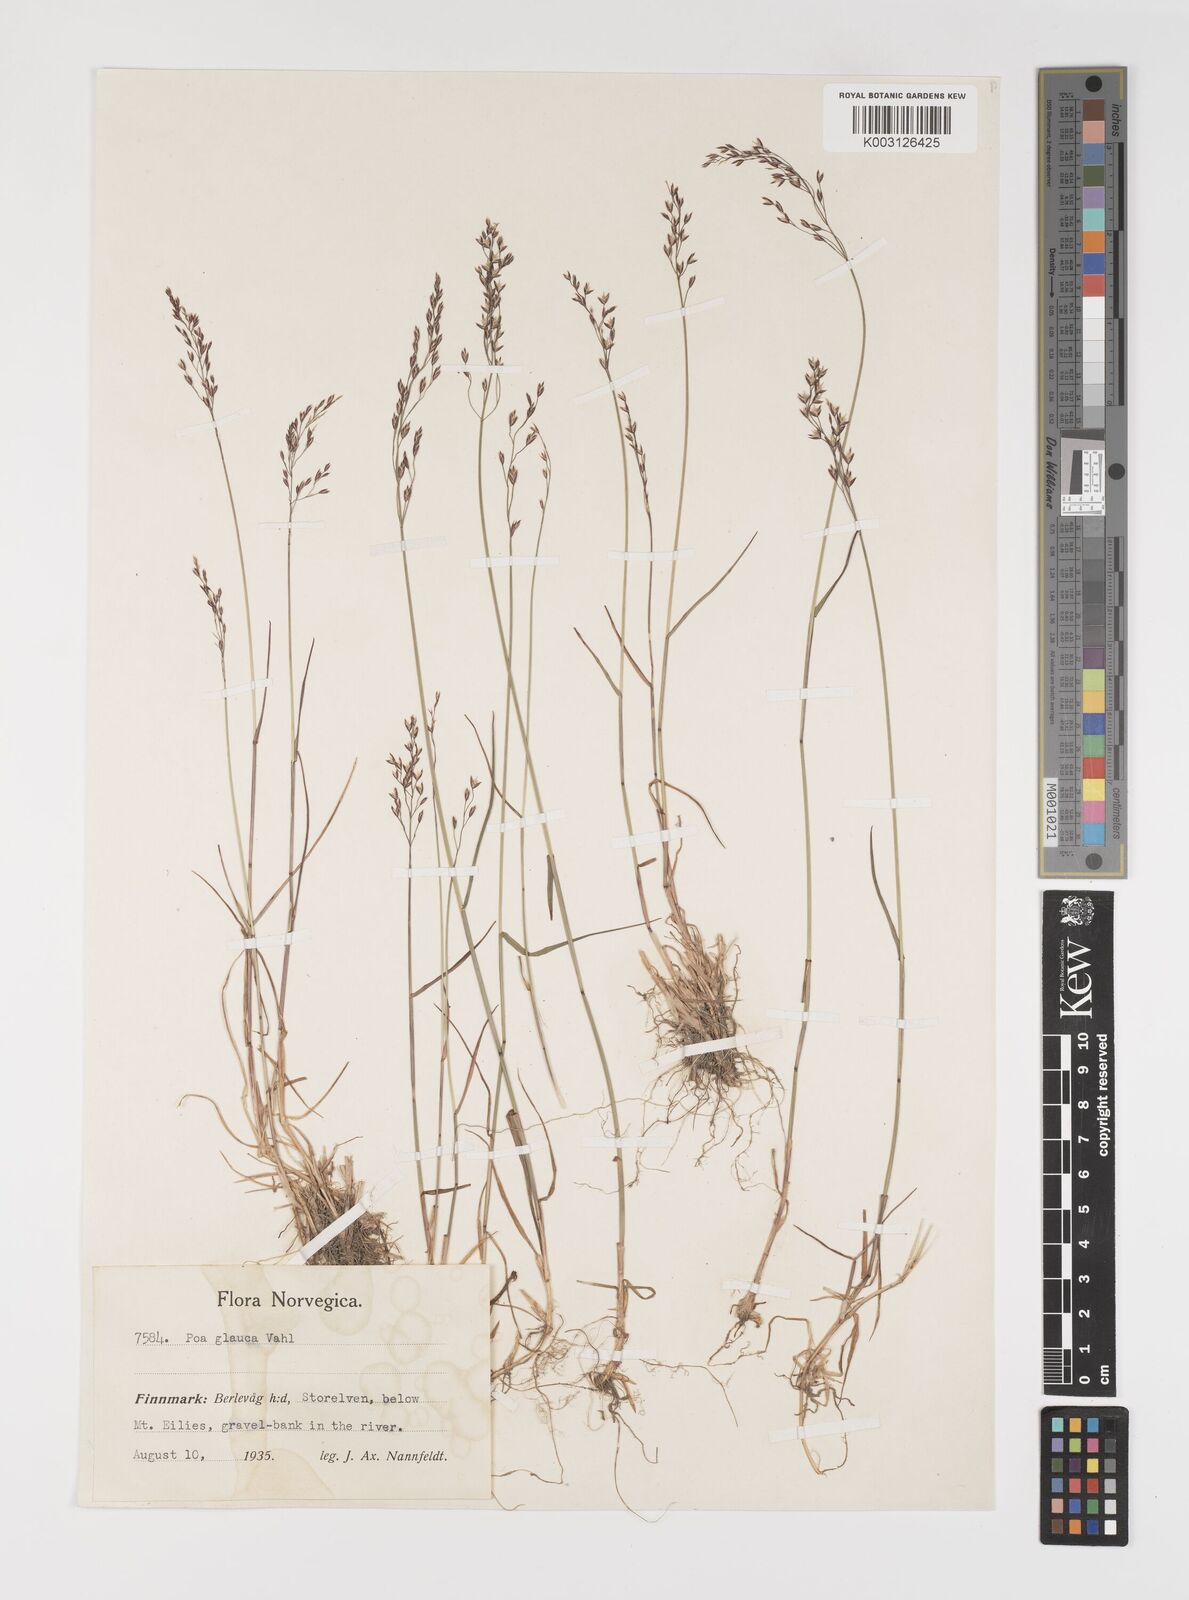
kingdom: Plantae
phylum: Tracheophyta
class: Liliopsida
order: Poales
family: Poaceae
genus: Poa
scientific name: Poa nemoralis
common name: Wood bluegrass
